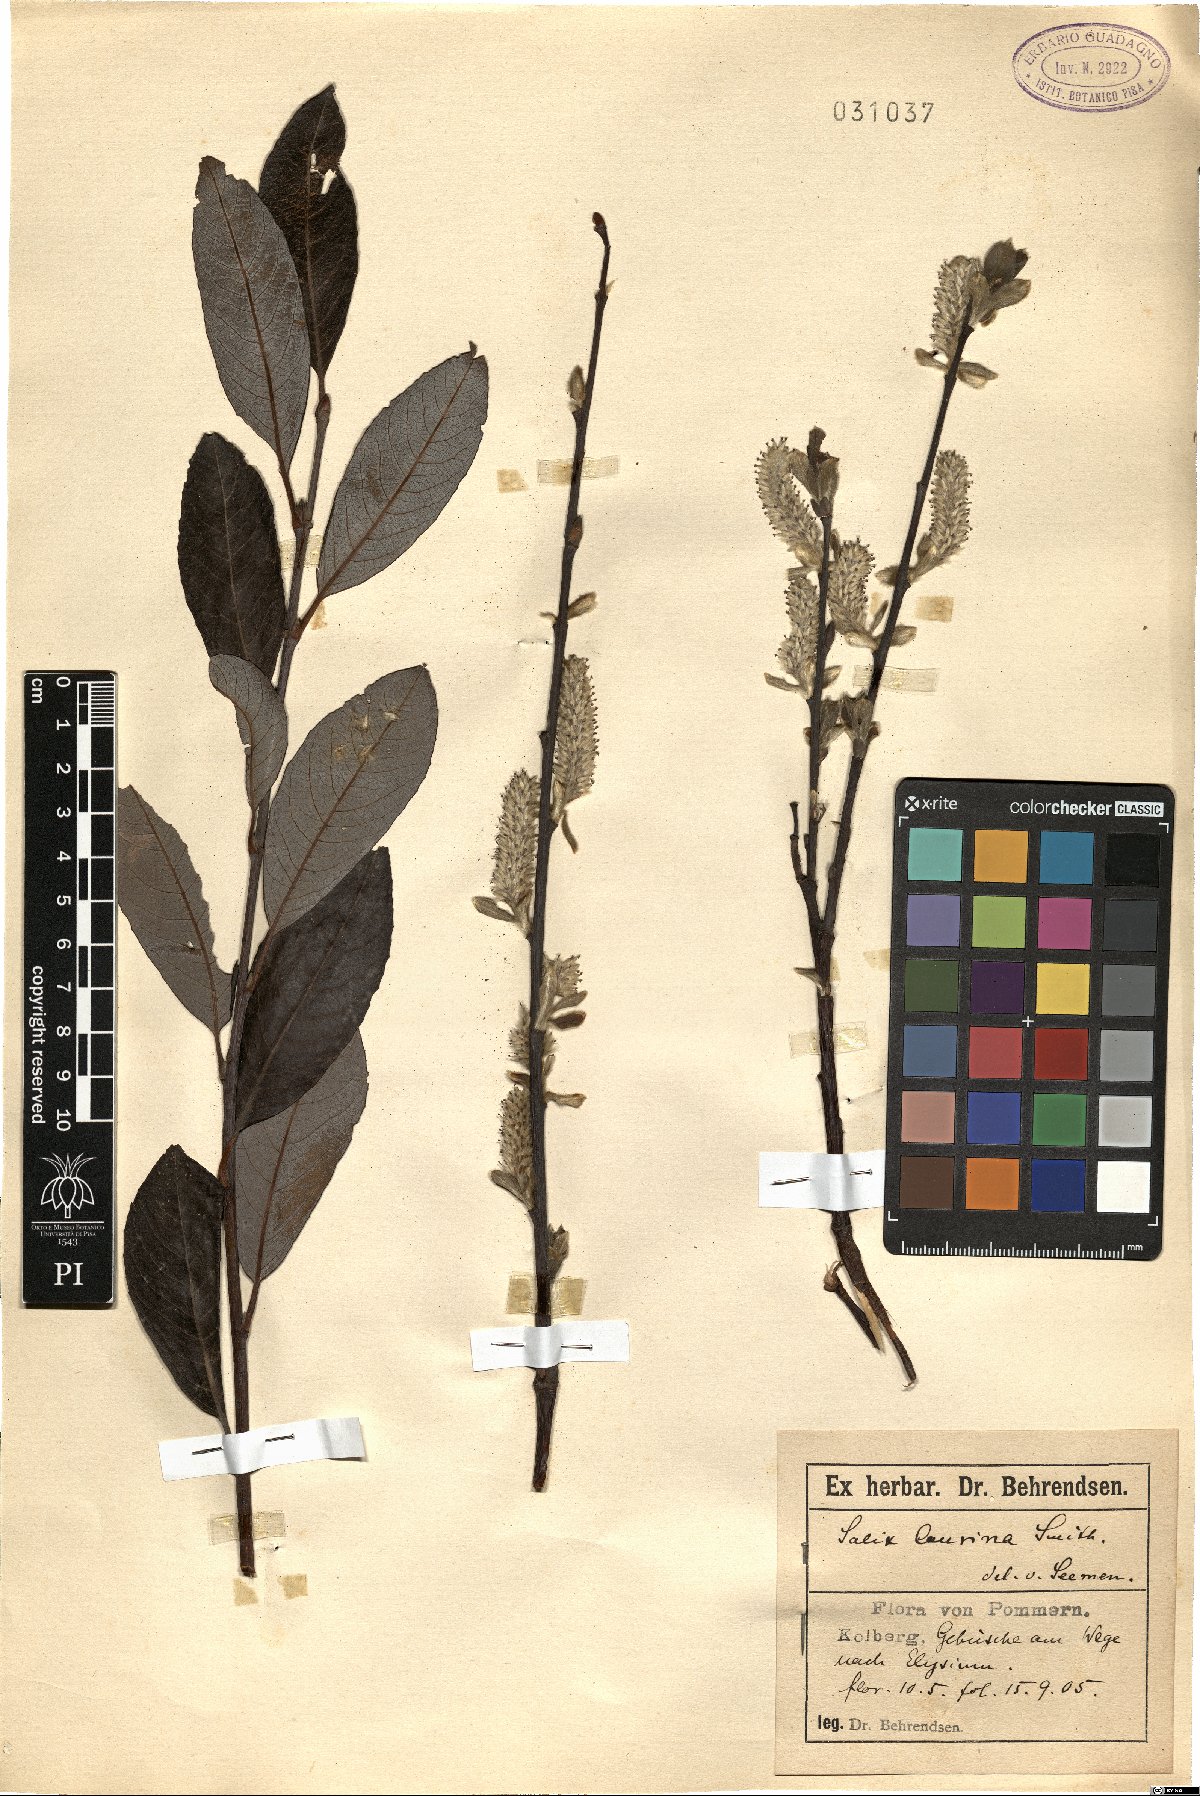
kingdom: Plantae
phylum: Tracheophyta
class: Magnoliopsida
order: Malpighiales
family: Salicaceae
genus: Salix
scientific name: Salix laurina
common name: Laurel-leaf willow
